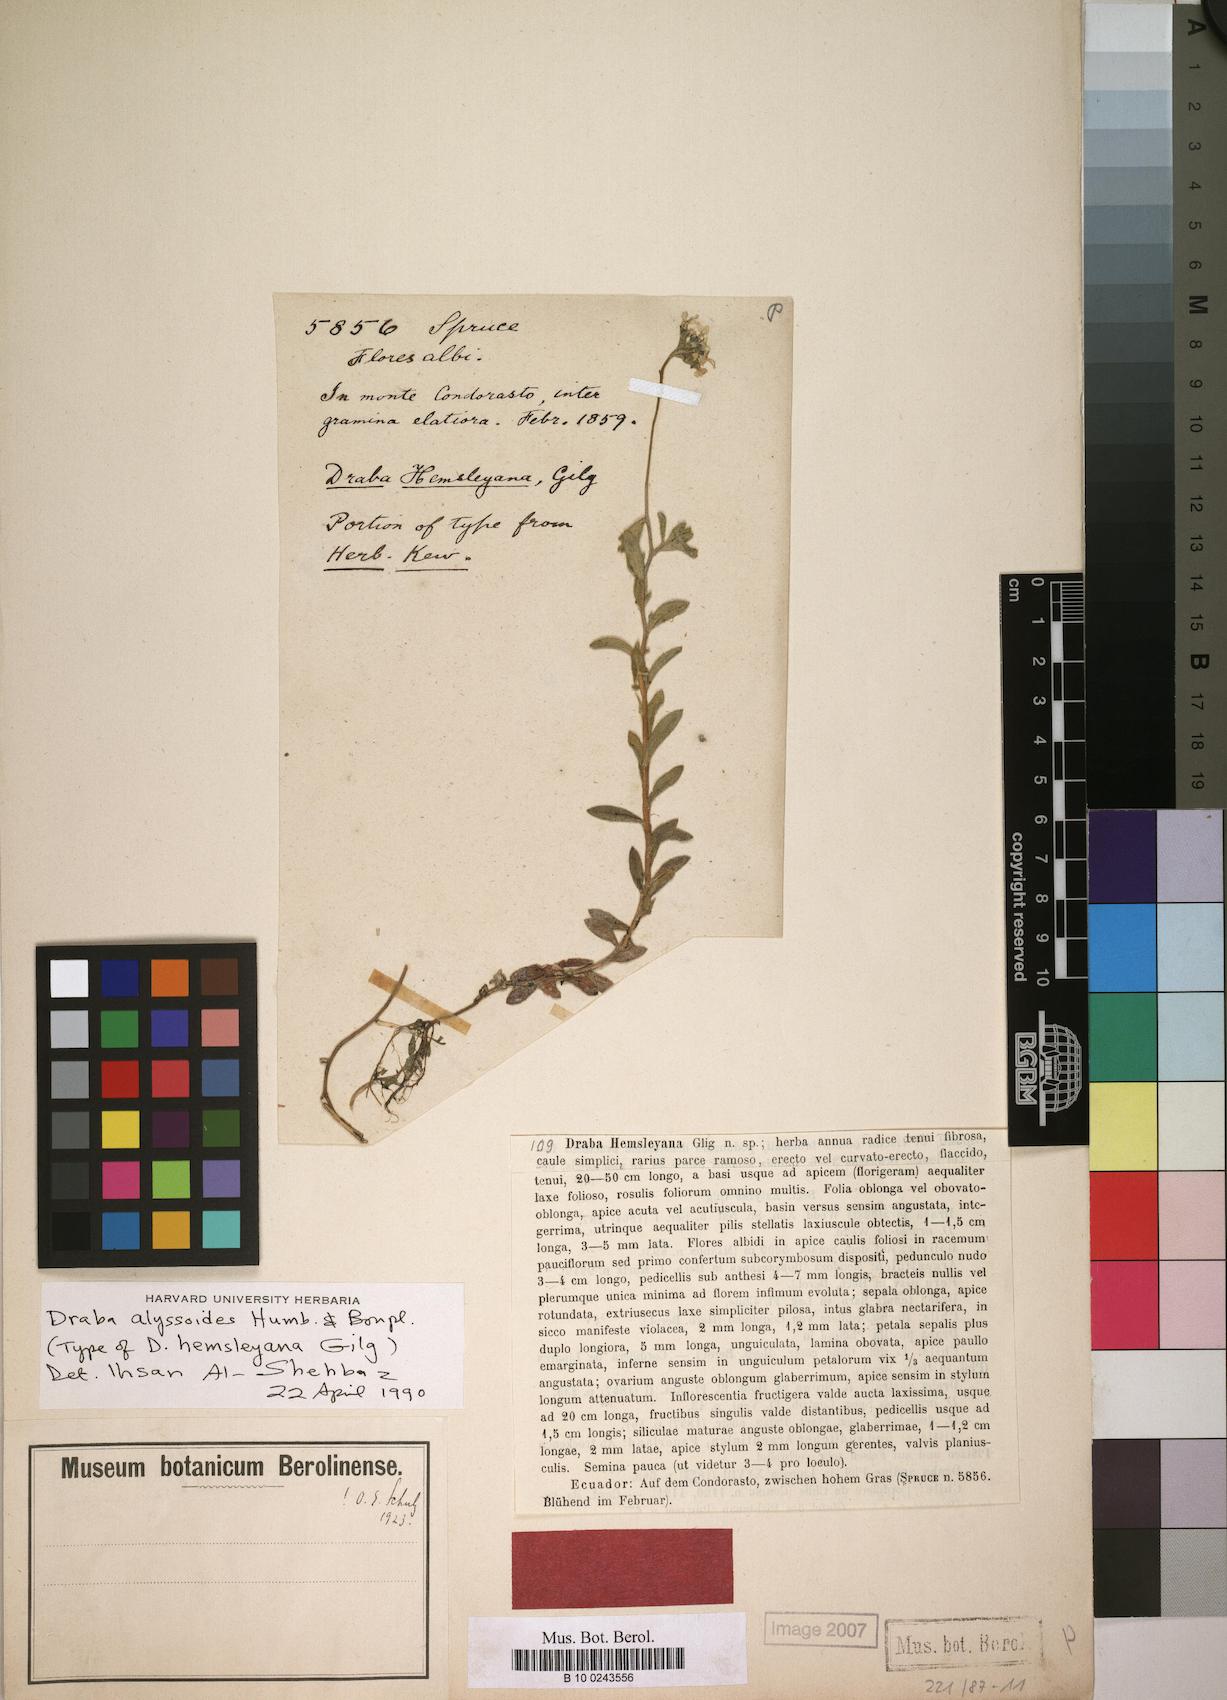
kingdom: Plantae
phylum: Tracheophyta
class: Magnoliopsida
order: Brassicales
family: Brassicaceae
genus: Draba
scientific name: Draba alyssoides
